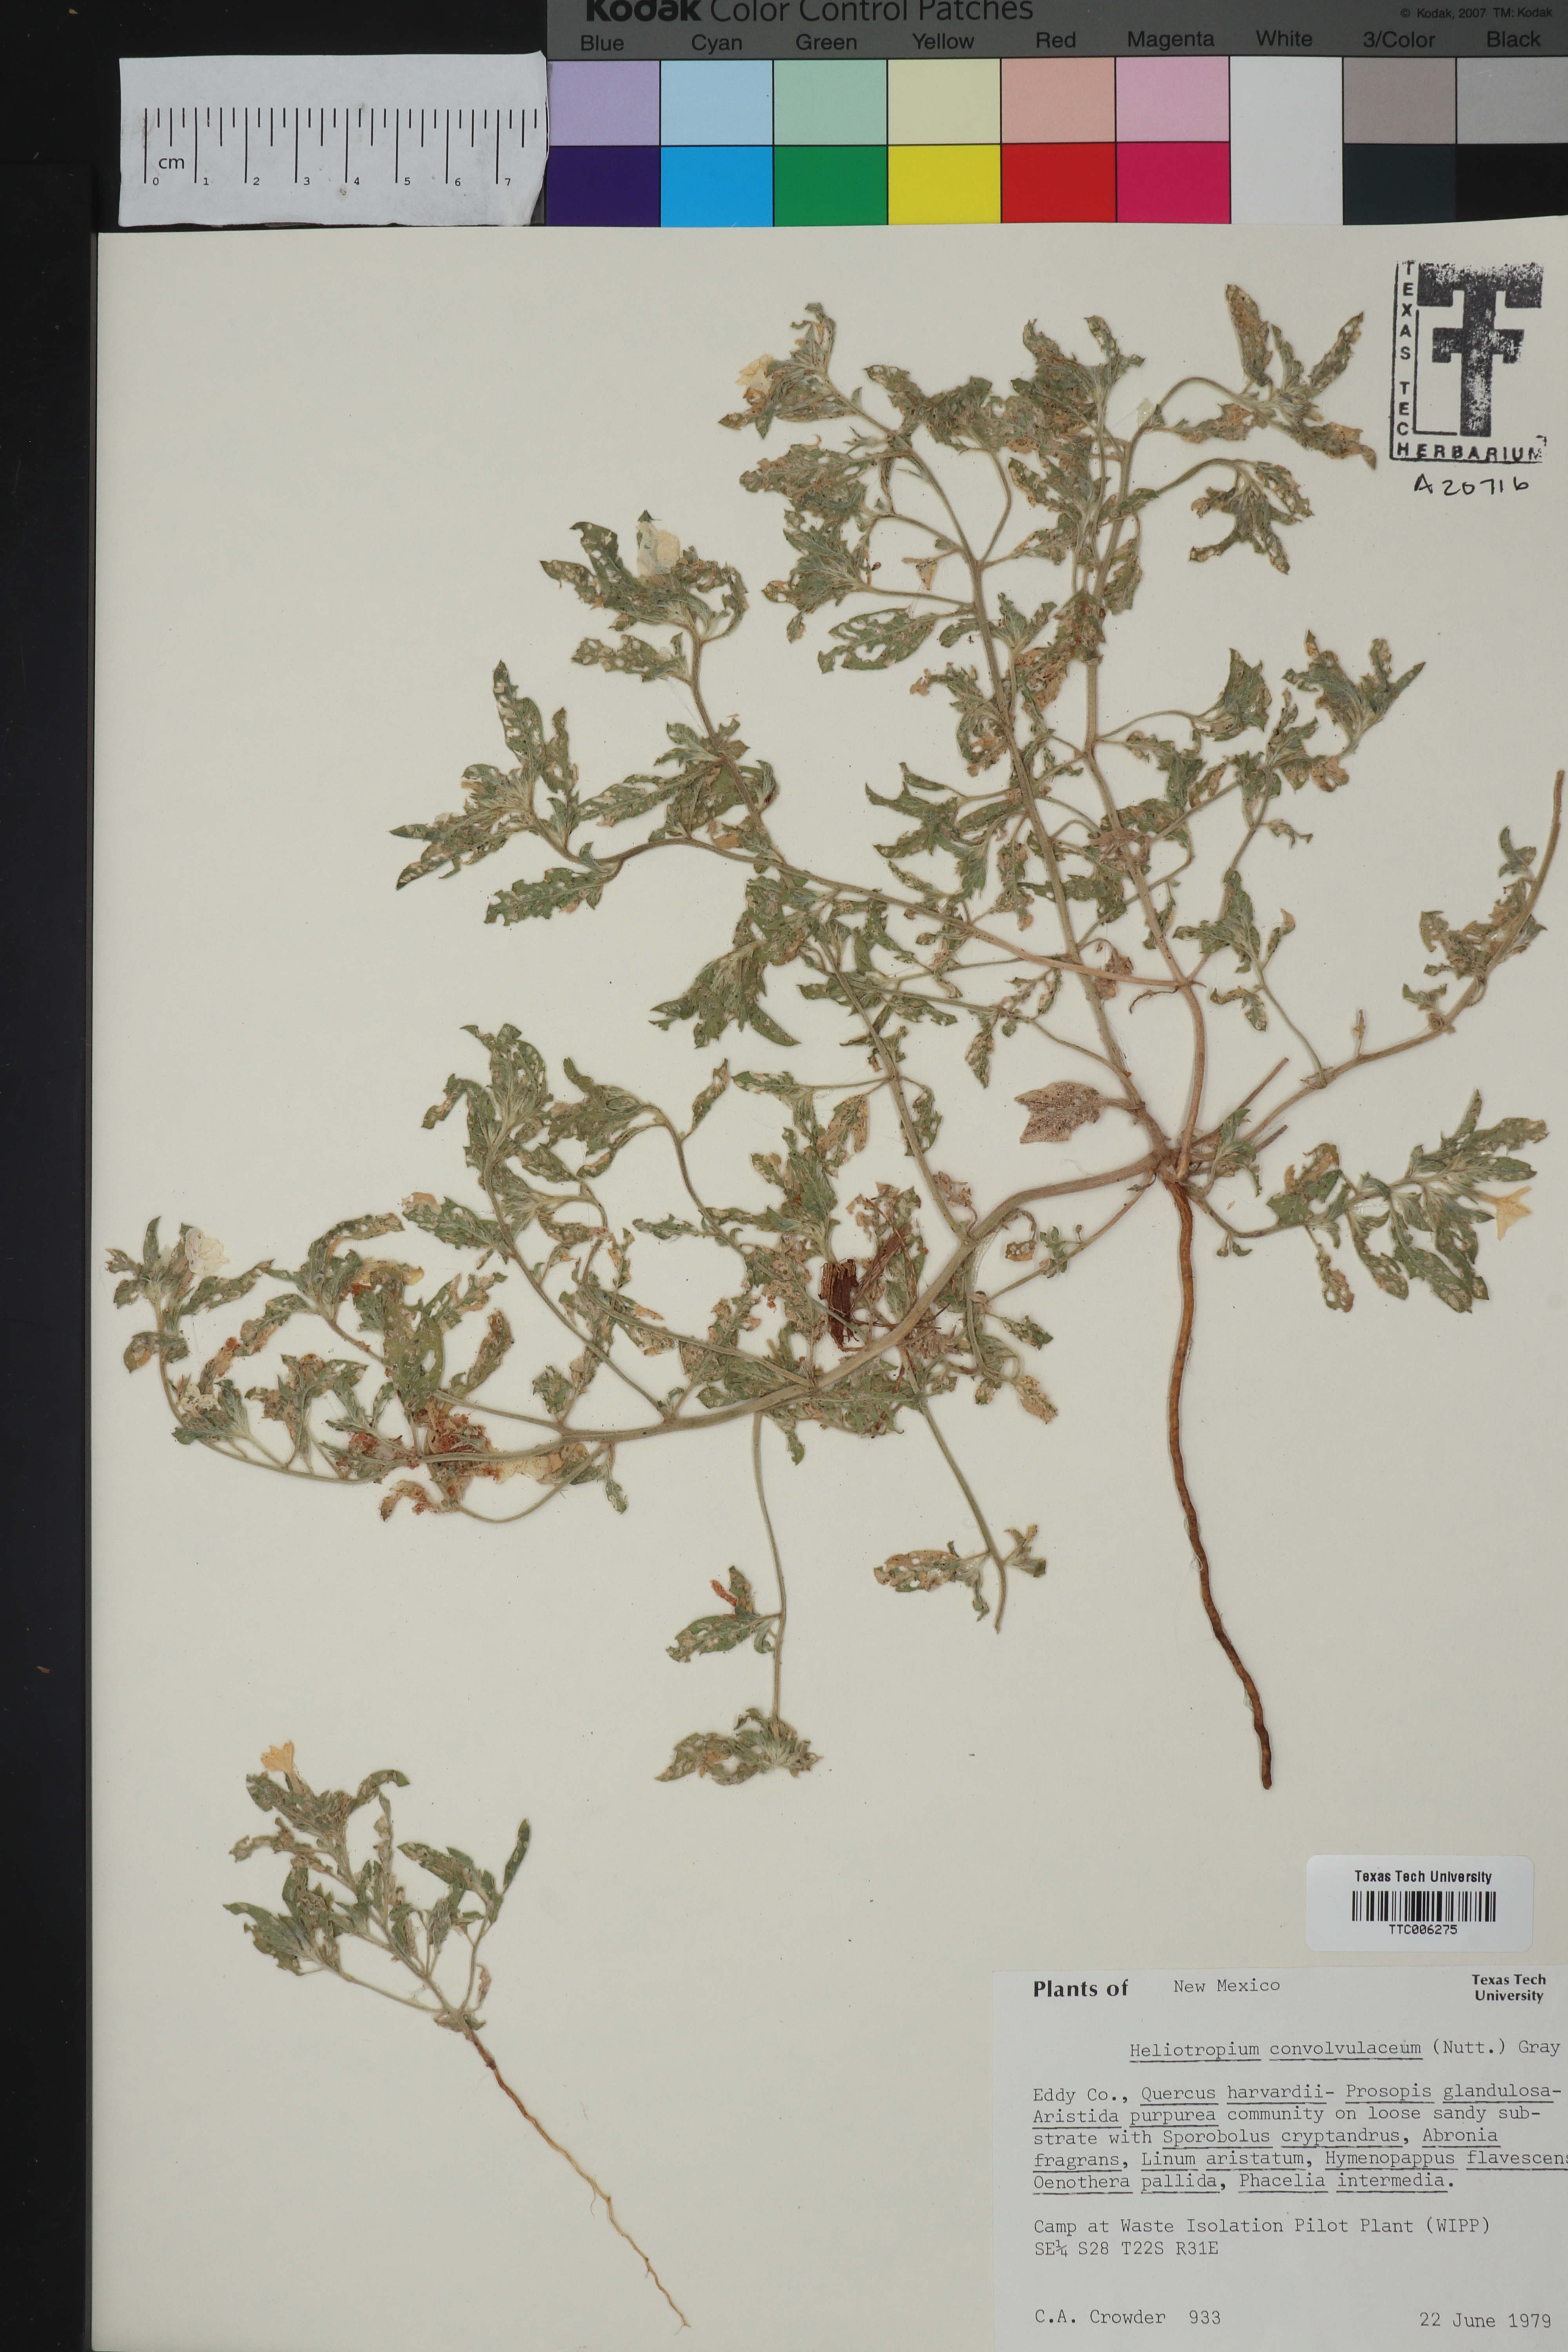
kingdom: Plantae
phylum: Tracheophyta
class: Magnoliopsida
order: Boraginales
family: Heliotropiaceae
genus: Euploca
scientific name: Euploca convolvulacea
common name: Bindweed heliotrope
